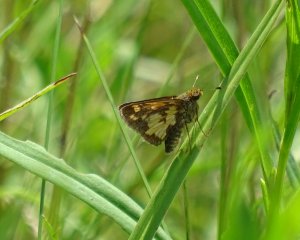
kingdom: Animalia
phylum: Arthropoda
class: Insecta
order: Lepidoptera
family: Hesperiidae
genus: Polites
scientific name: Polites coras
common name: Peck's Skipper
